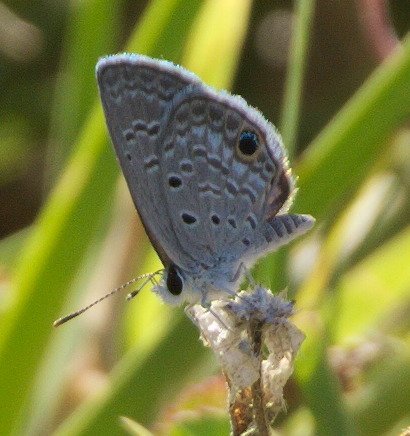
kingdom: Animalia
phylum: Arthropoda
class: Insecta
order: Lepidoptera
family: Lycaenidae
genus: Hemiargus
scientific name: Hemiargus ceraunus
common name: Ceraunus Blue
